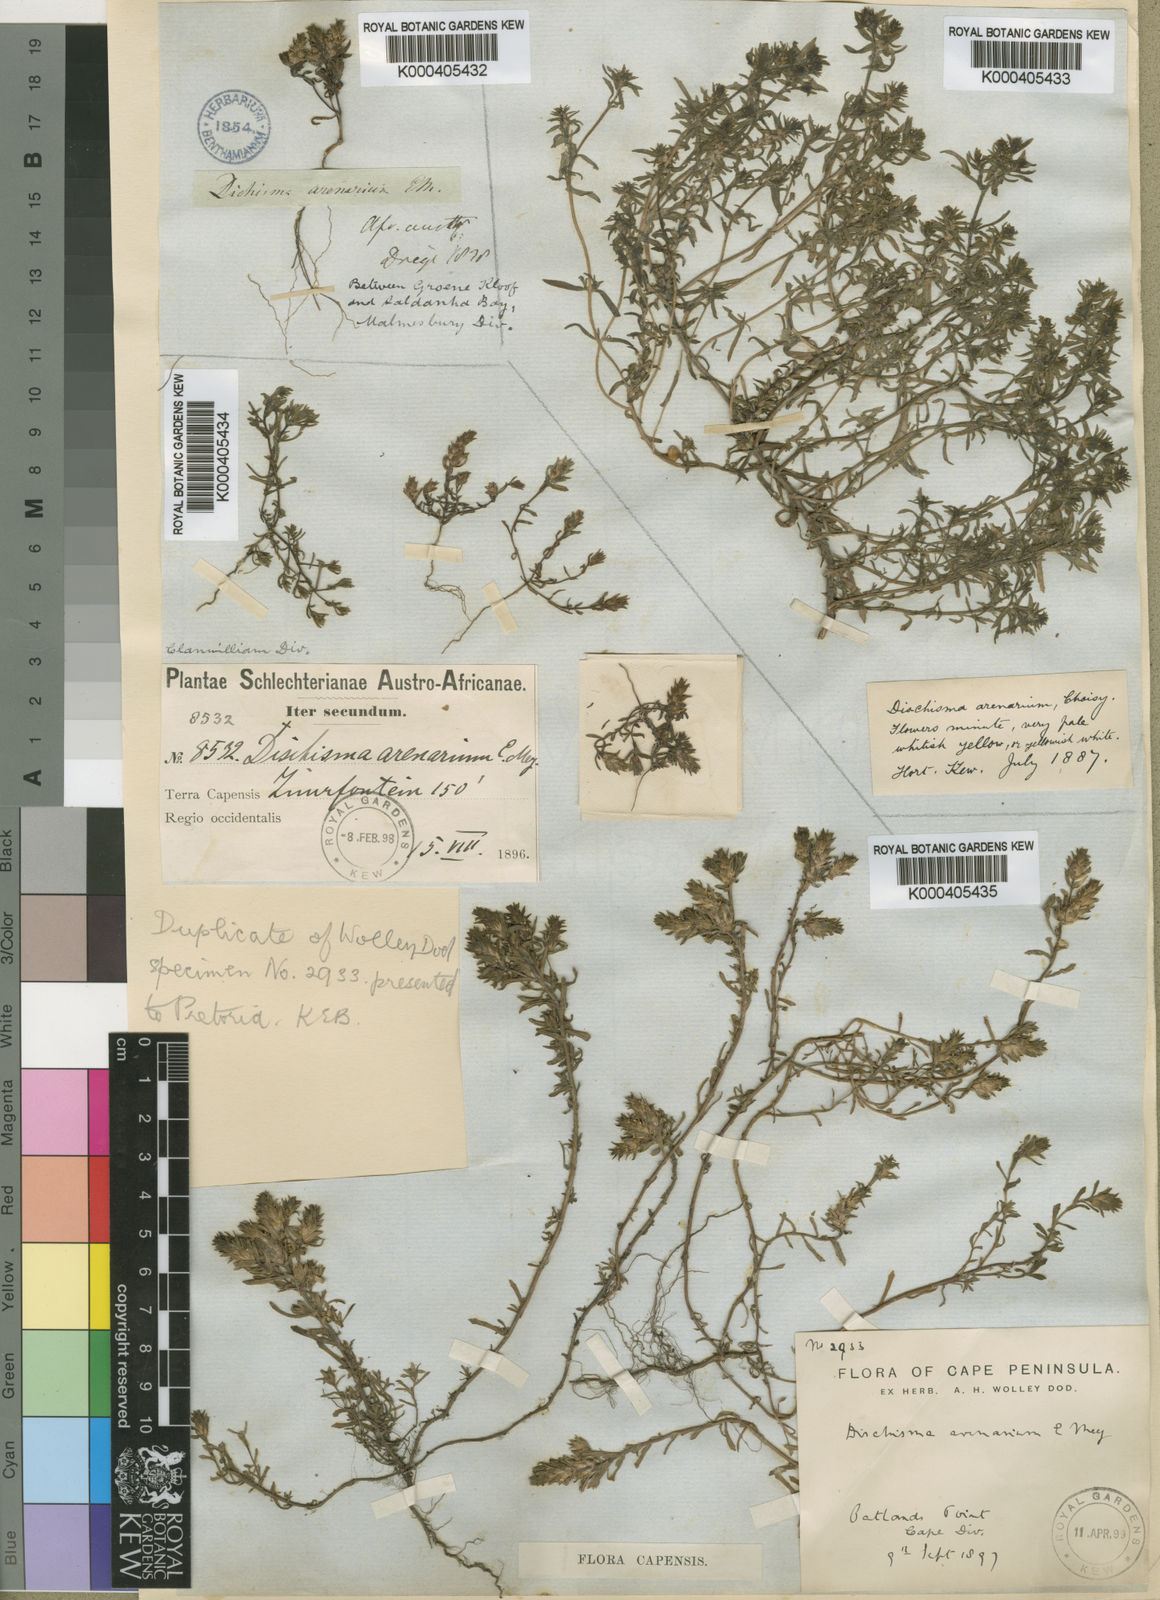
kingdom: Plantae
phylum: Tracheophyta
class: Magnoliopsida
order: Lamiales
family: Scrophulariaceae
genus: Dischisma
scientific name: Dischisma arenarium
